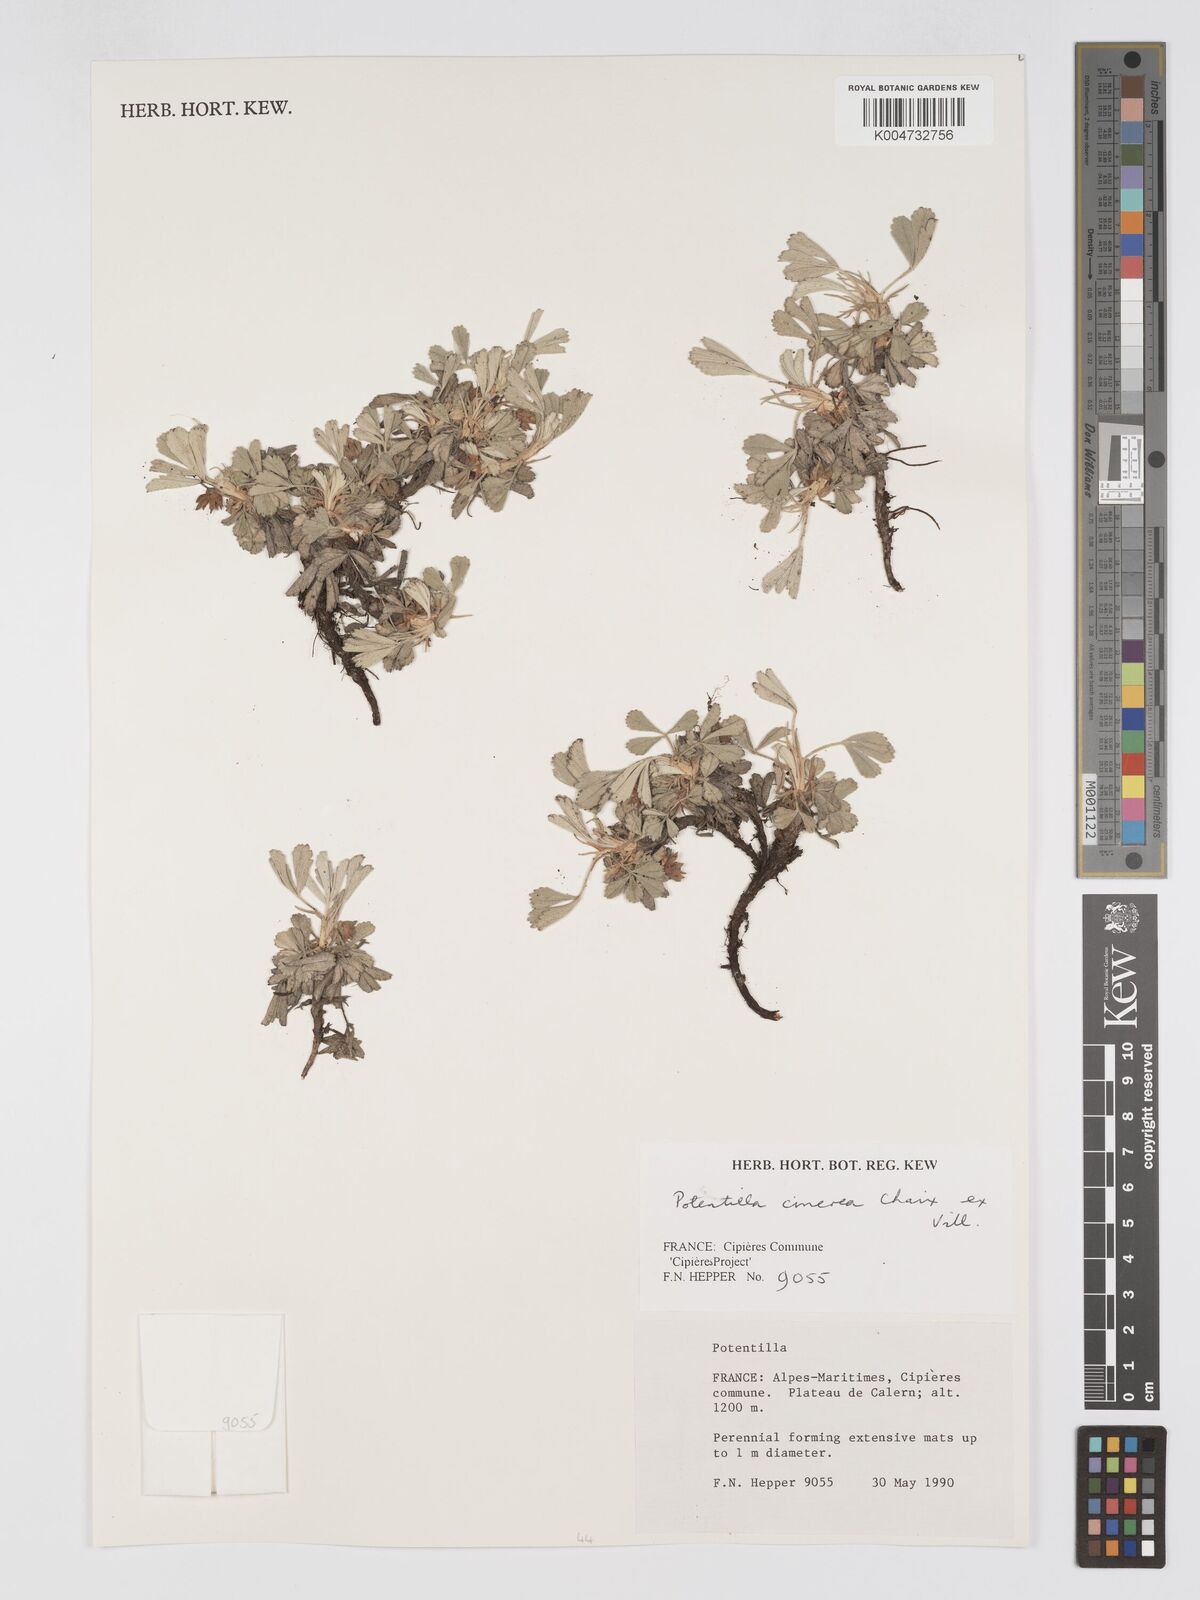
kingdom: Plantae
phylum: Tracheophyta
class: Magnoliopsida
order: Rosales
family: Rosaceae
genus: Potentilla
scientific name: Potentilla
